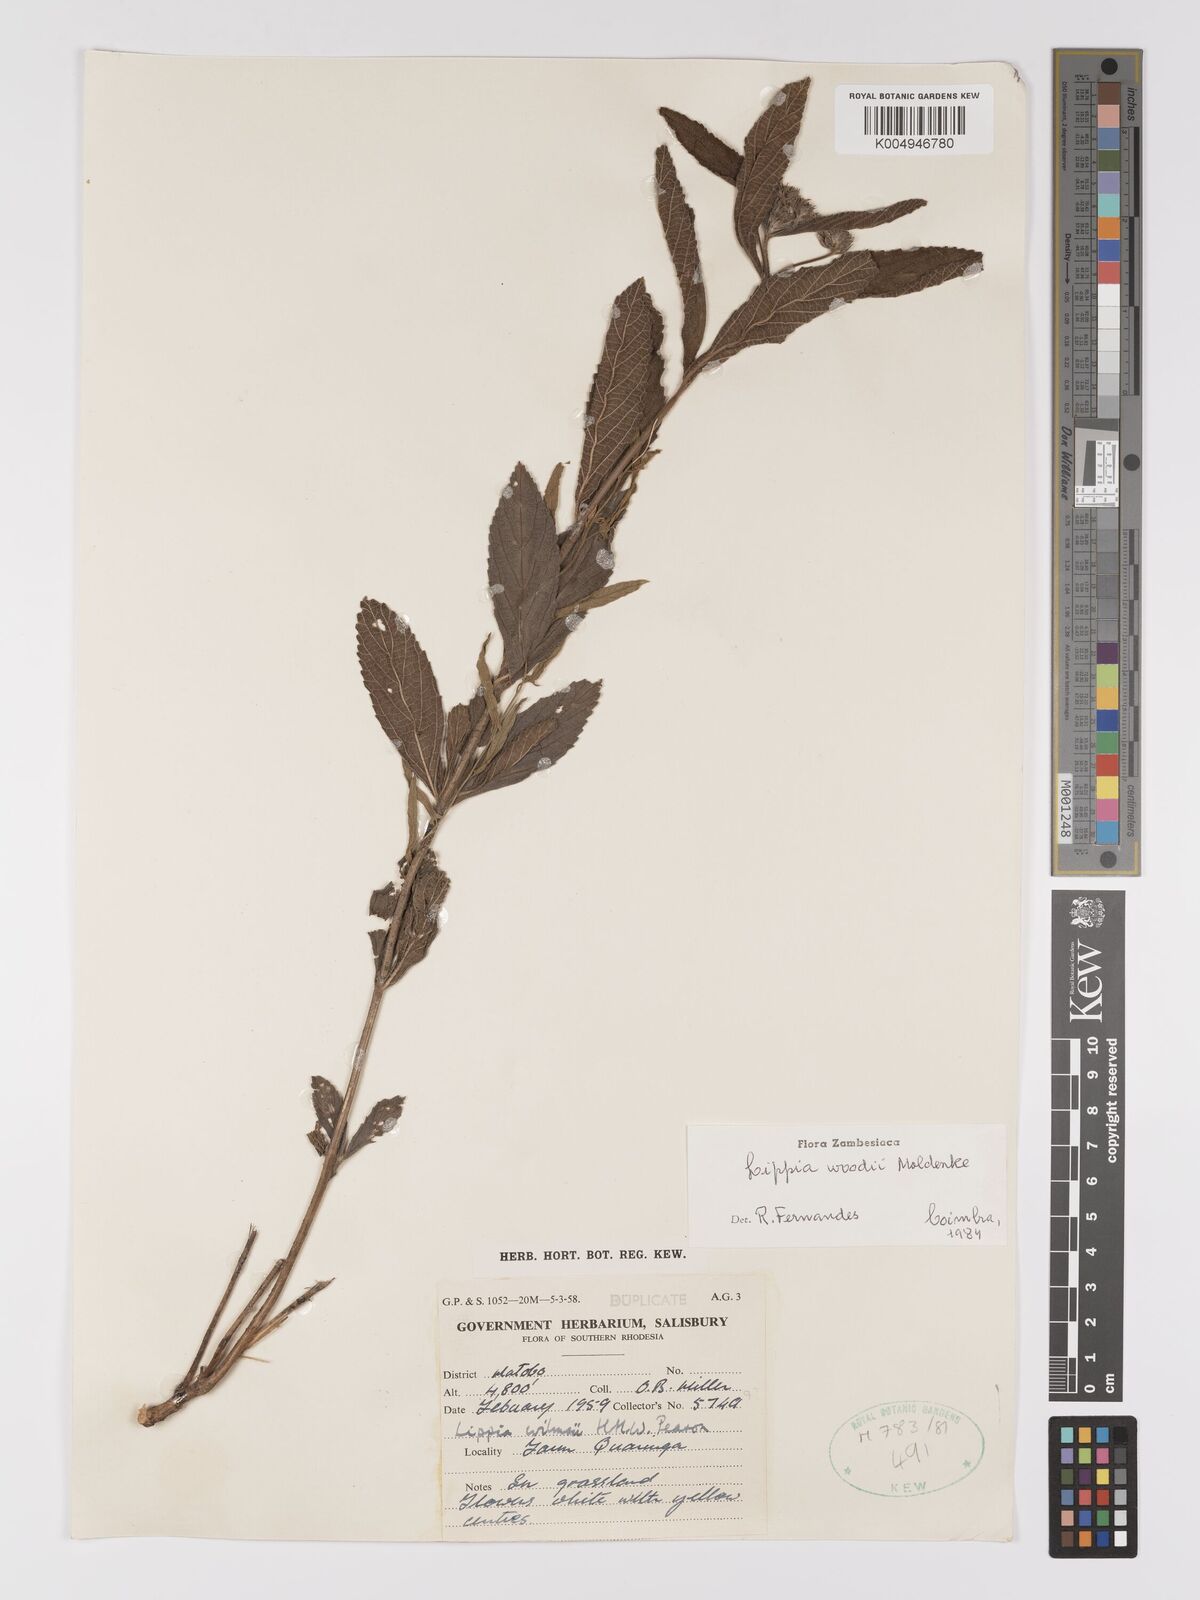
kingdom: Plantae
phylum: Tracheophyta
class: Magnoliopsida
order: Lamiales
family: Verbenaceae
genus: Lippia
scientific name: Lippia woodii
